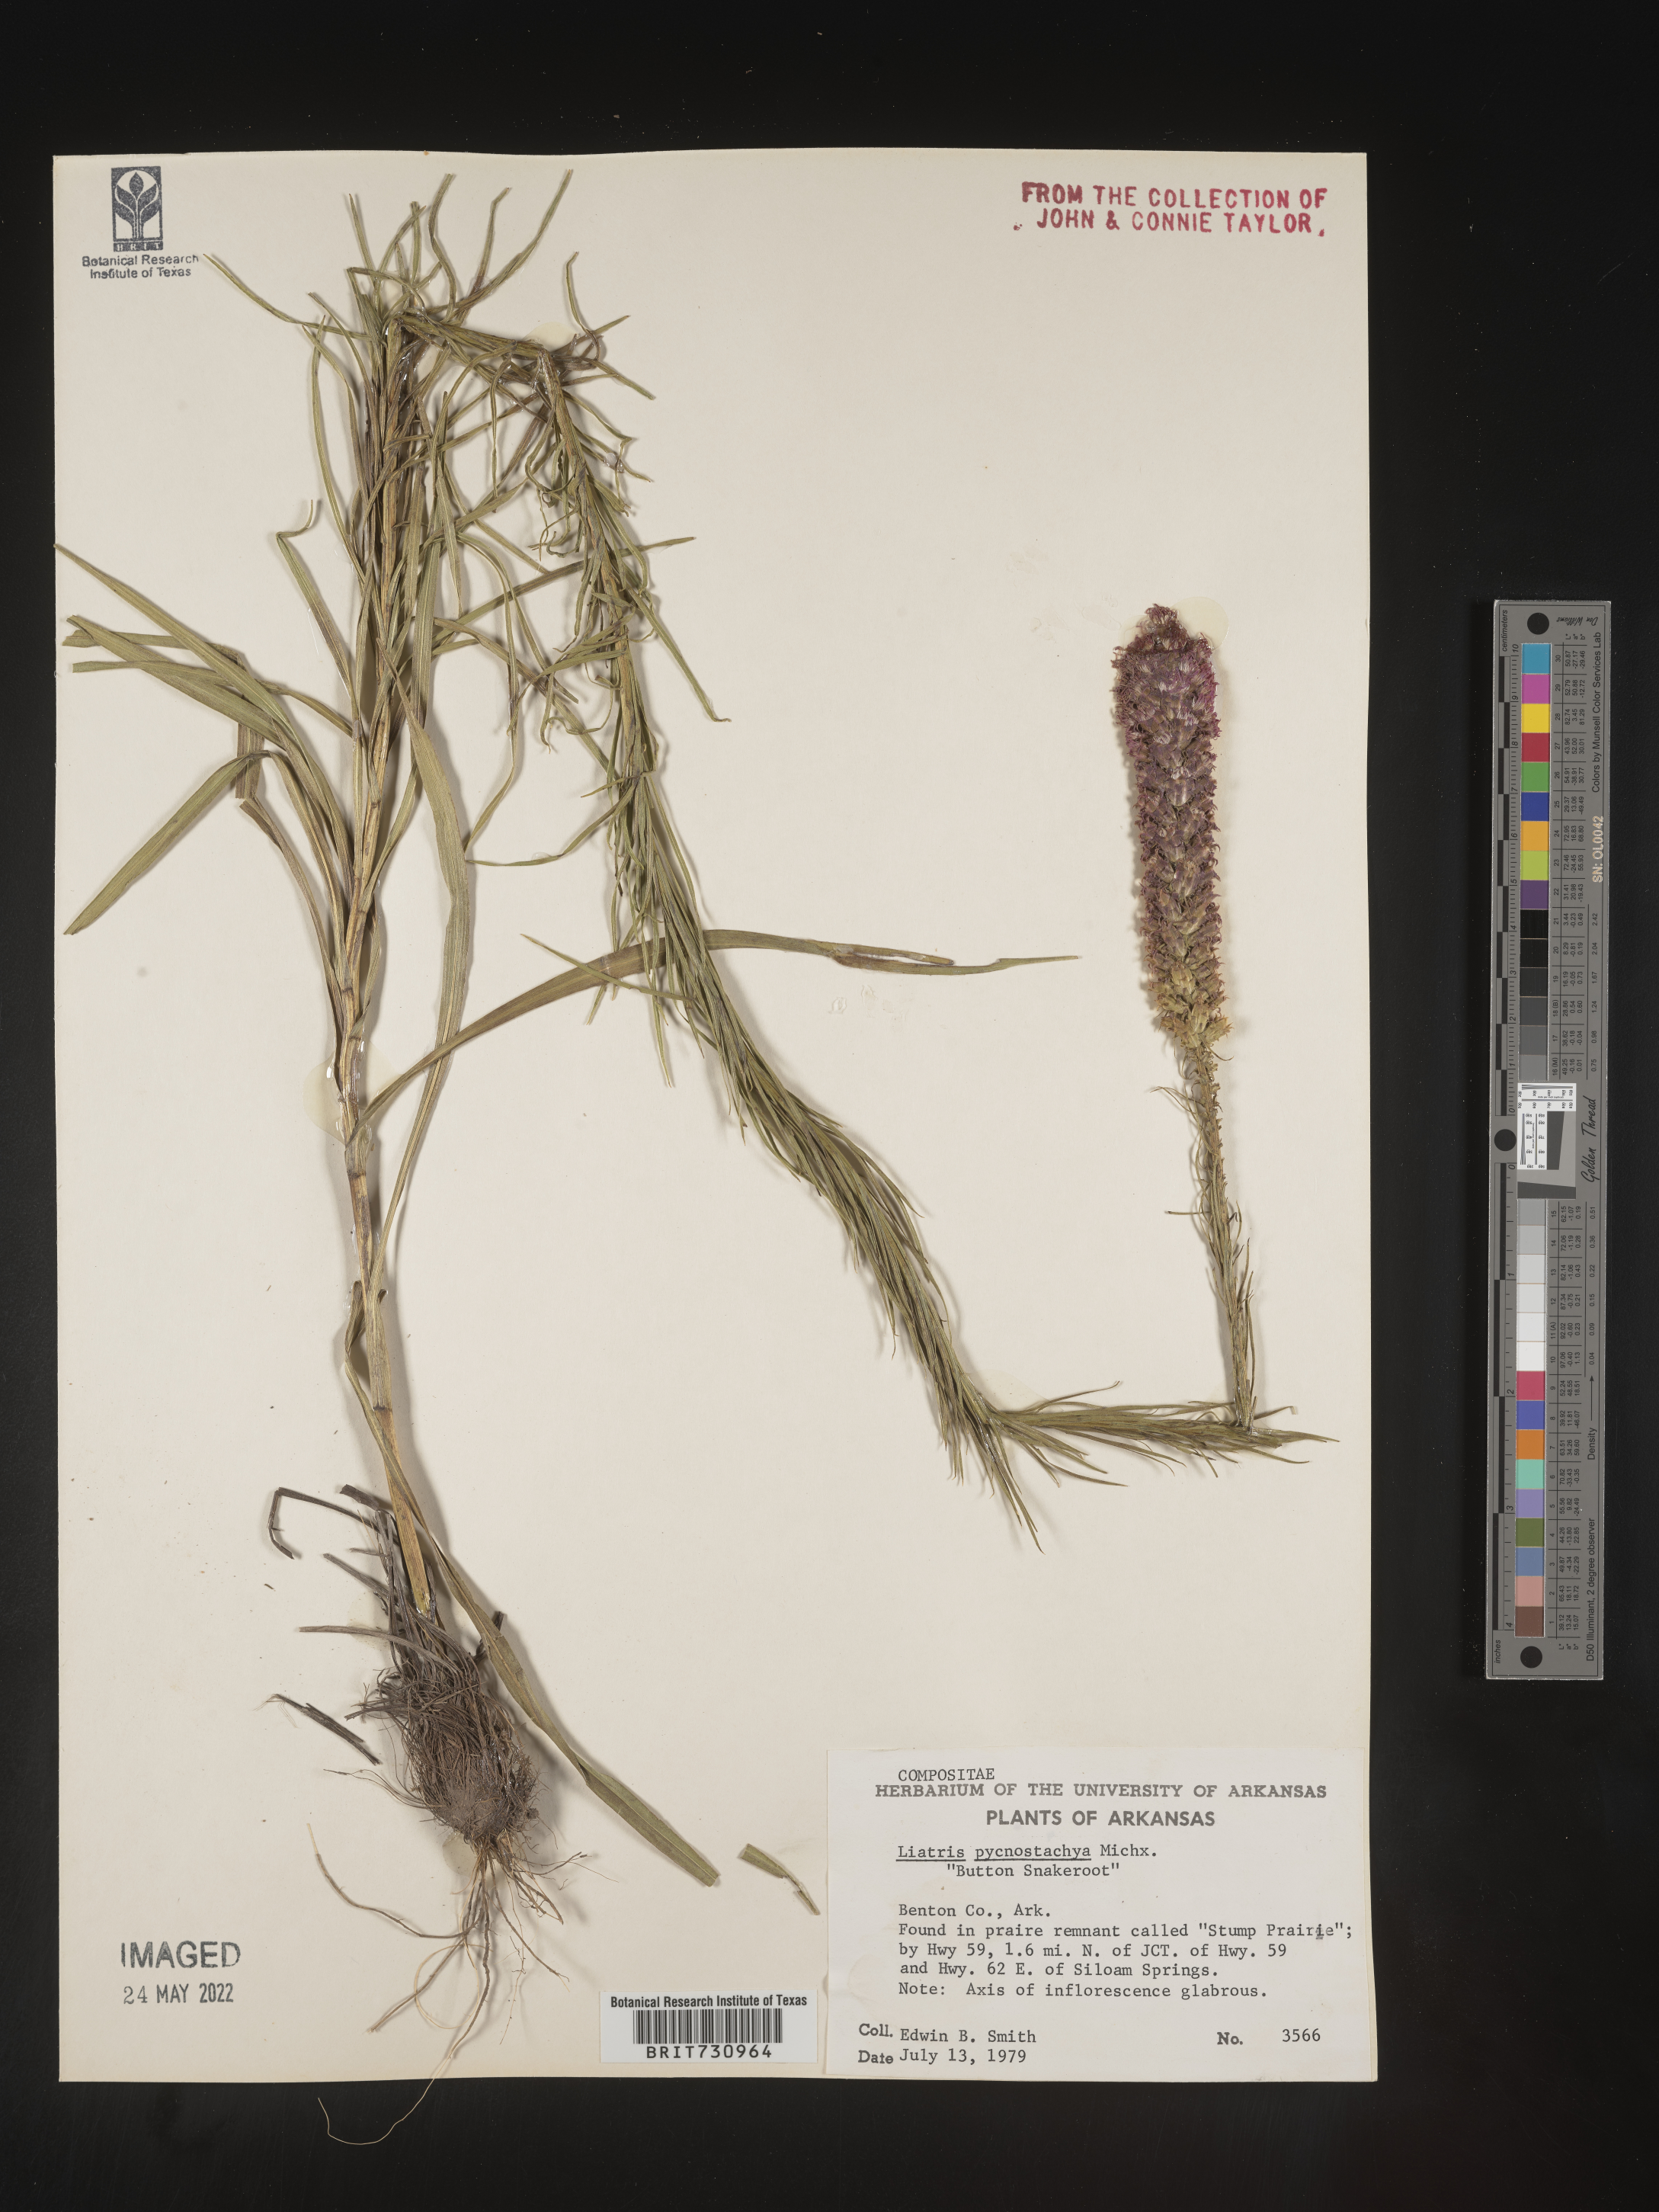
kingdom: Plantae
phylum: Tracheophyta
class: Magnoliopsida
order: Asterales
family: Asteraceae
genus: Liatris
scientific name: Liatris pycnostachya
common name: Cattail gayfeather
